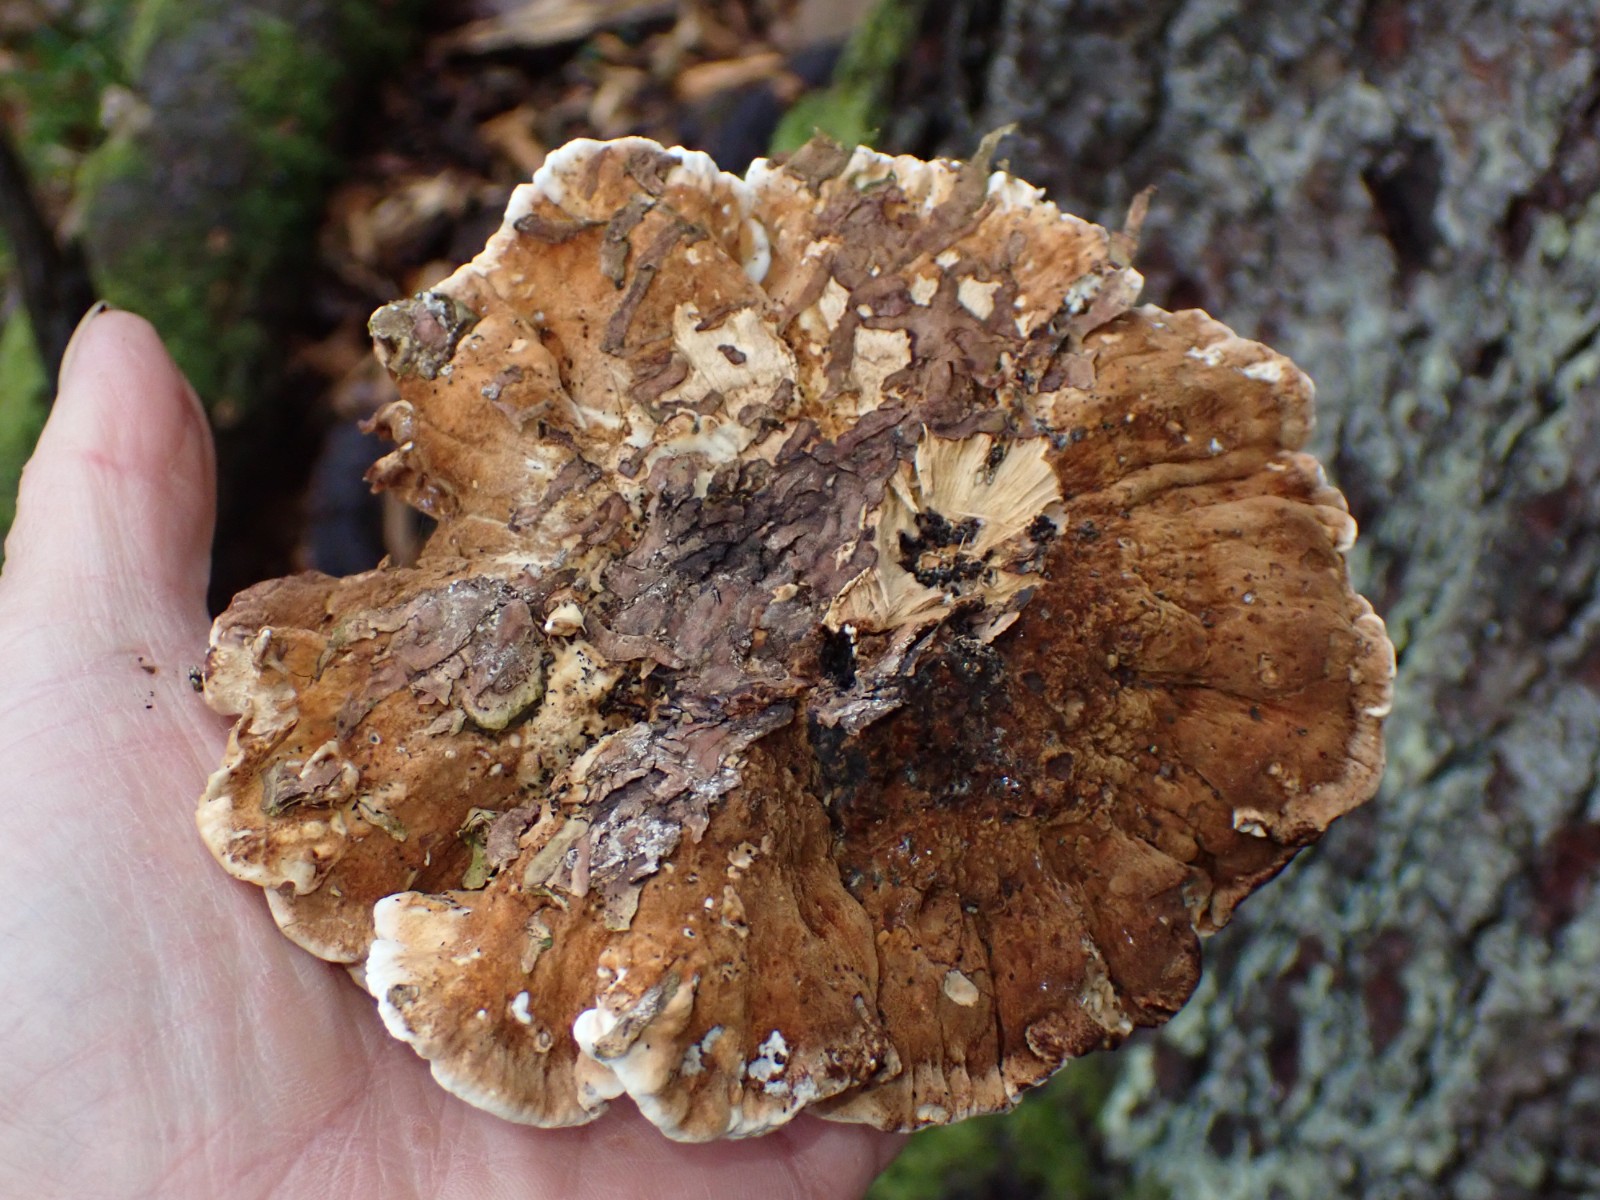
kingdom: Fungi
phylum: Basidiomycota
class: Agaricomycetes
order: Polyporales
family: Ischnodermataceae
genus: Ischnoderma
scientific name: Ischnoderma benzoinum
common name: gran-tjæreporesvamp
